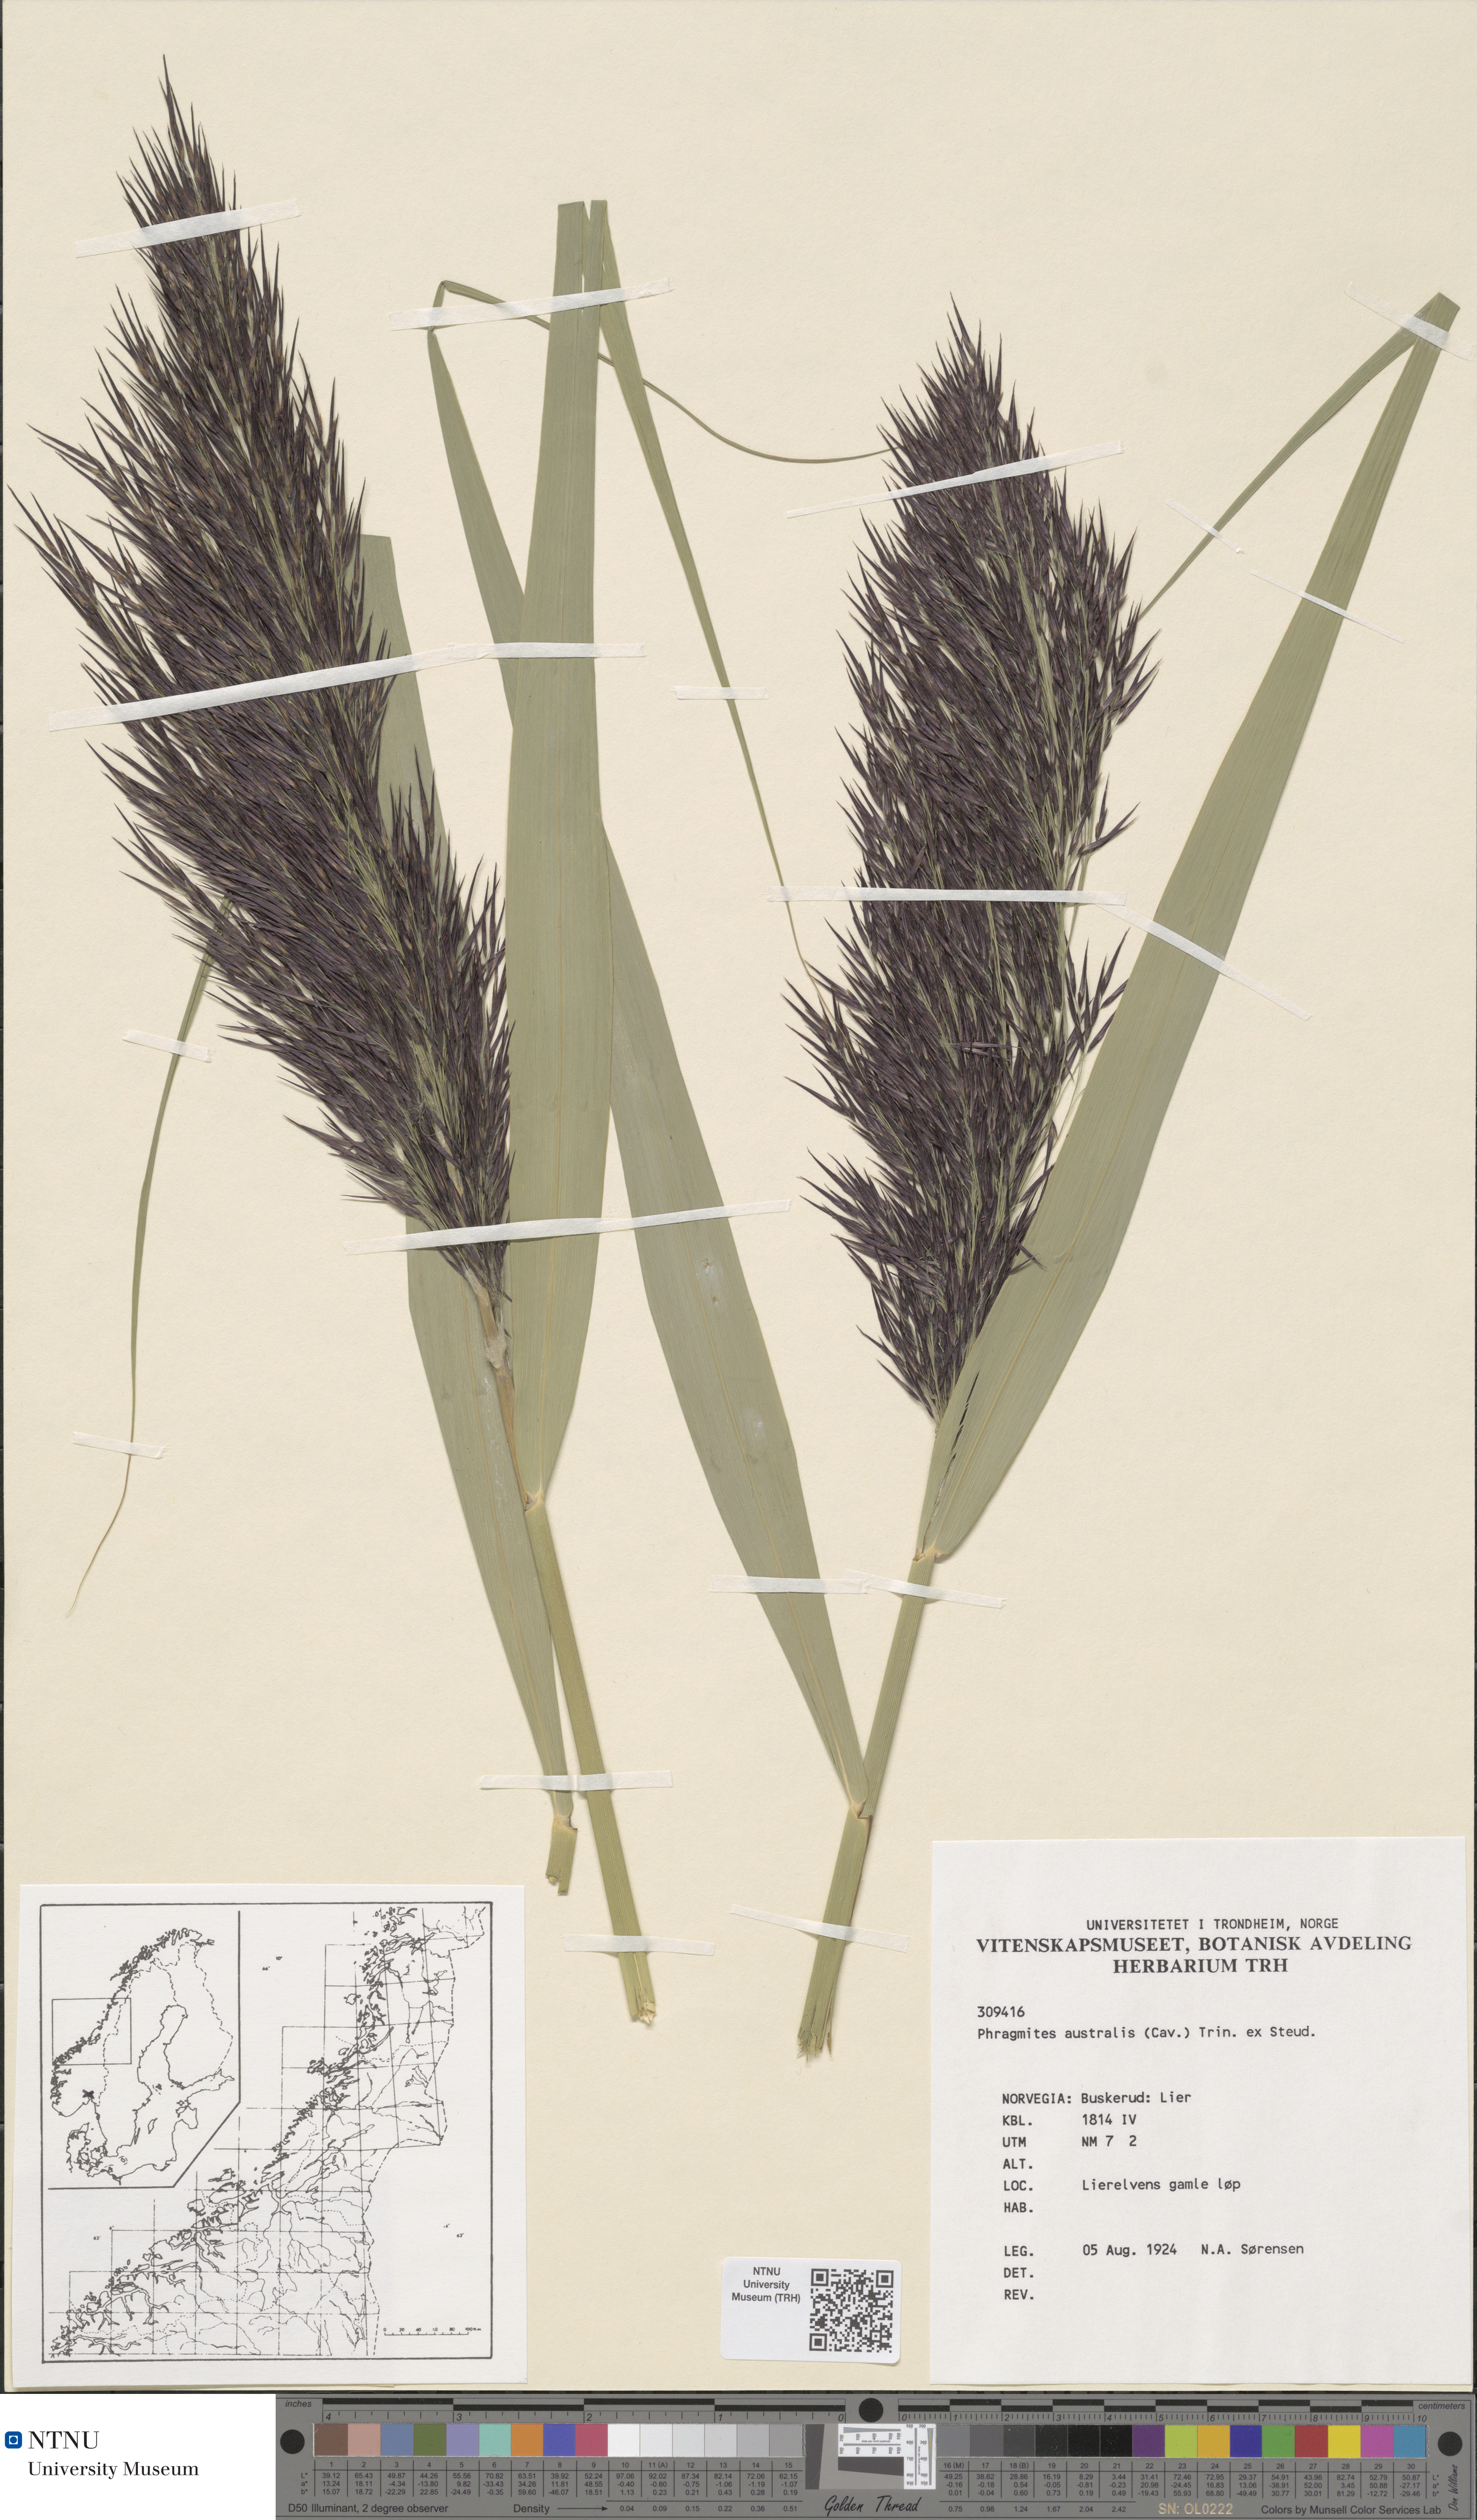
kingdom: Plantae
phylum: Tracheophyta
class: Liliopsida
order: Poales
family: Poaceae
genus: Phragmites
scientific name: Phragmites australis
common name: Common reed
